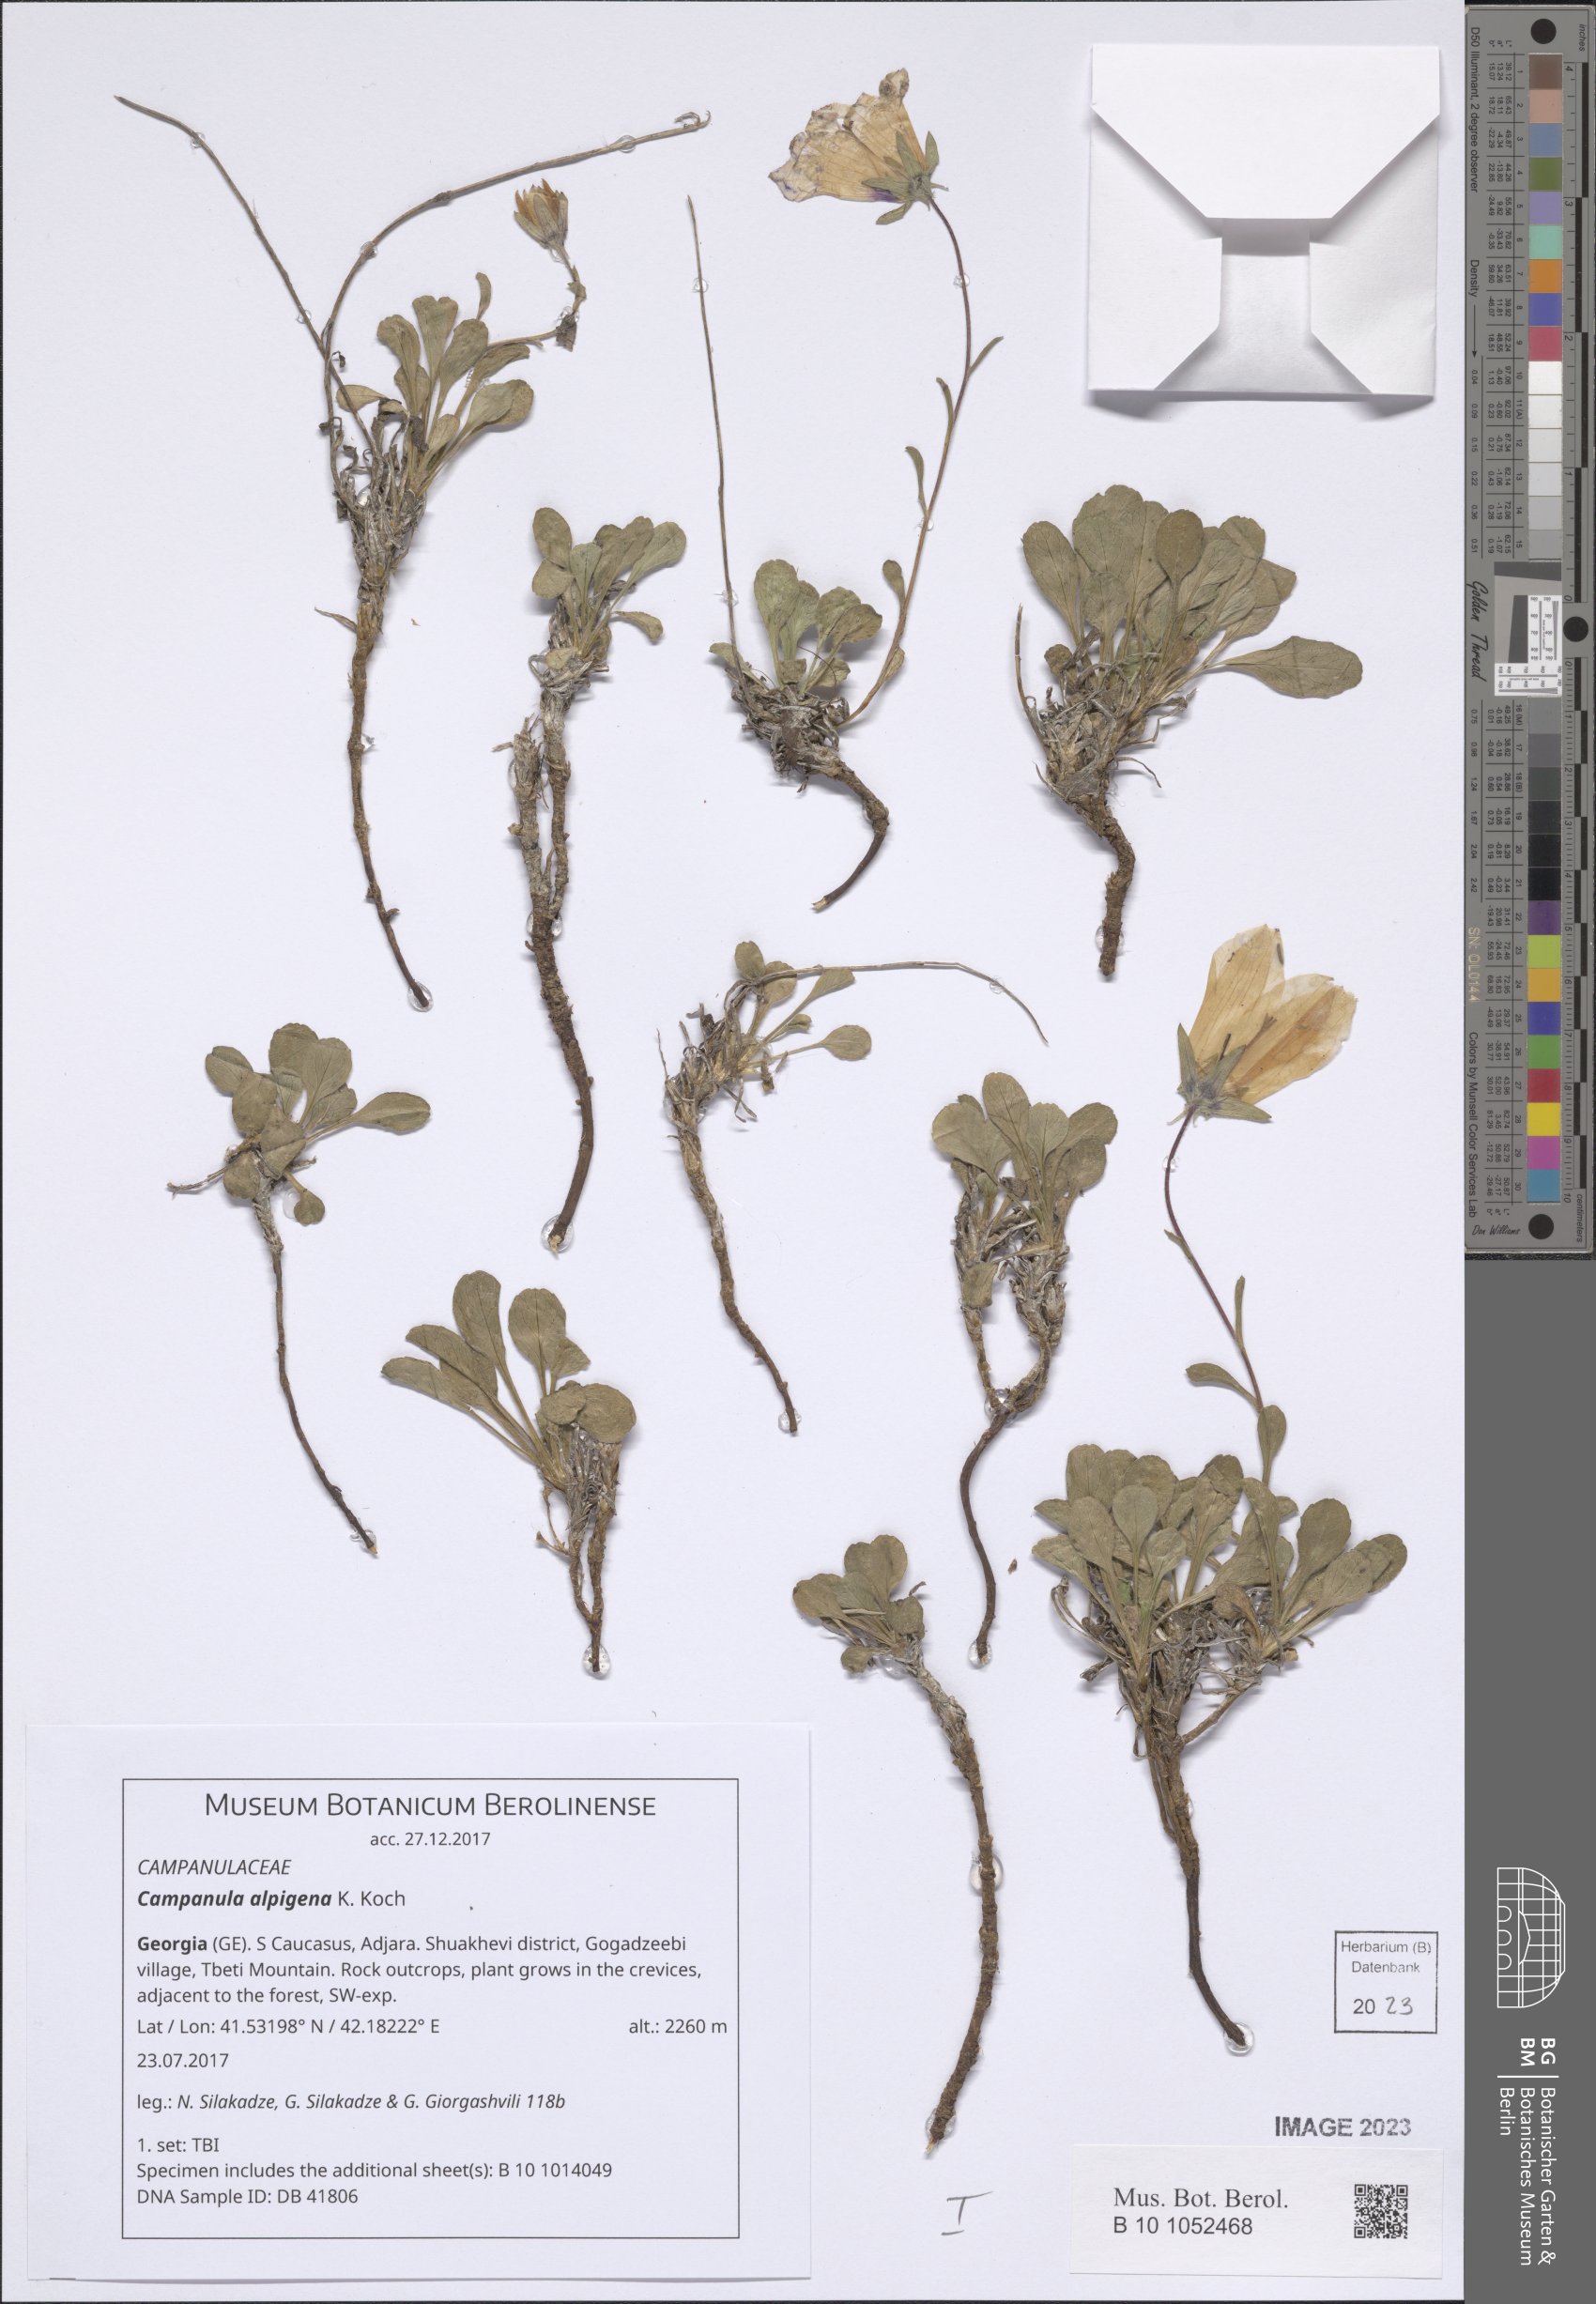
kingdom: Plantae
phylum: Tracheophyta
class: Magnoliopsida
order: Asterales
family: Campanulaceae
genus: Campanula
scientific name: Campanula saxifraga
